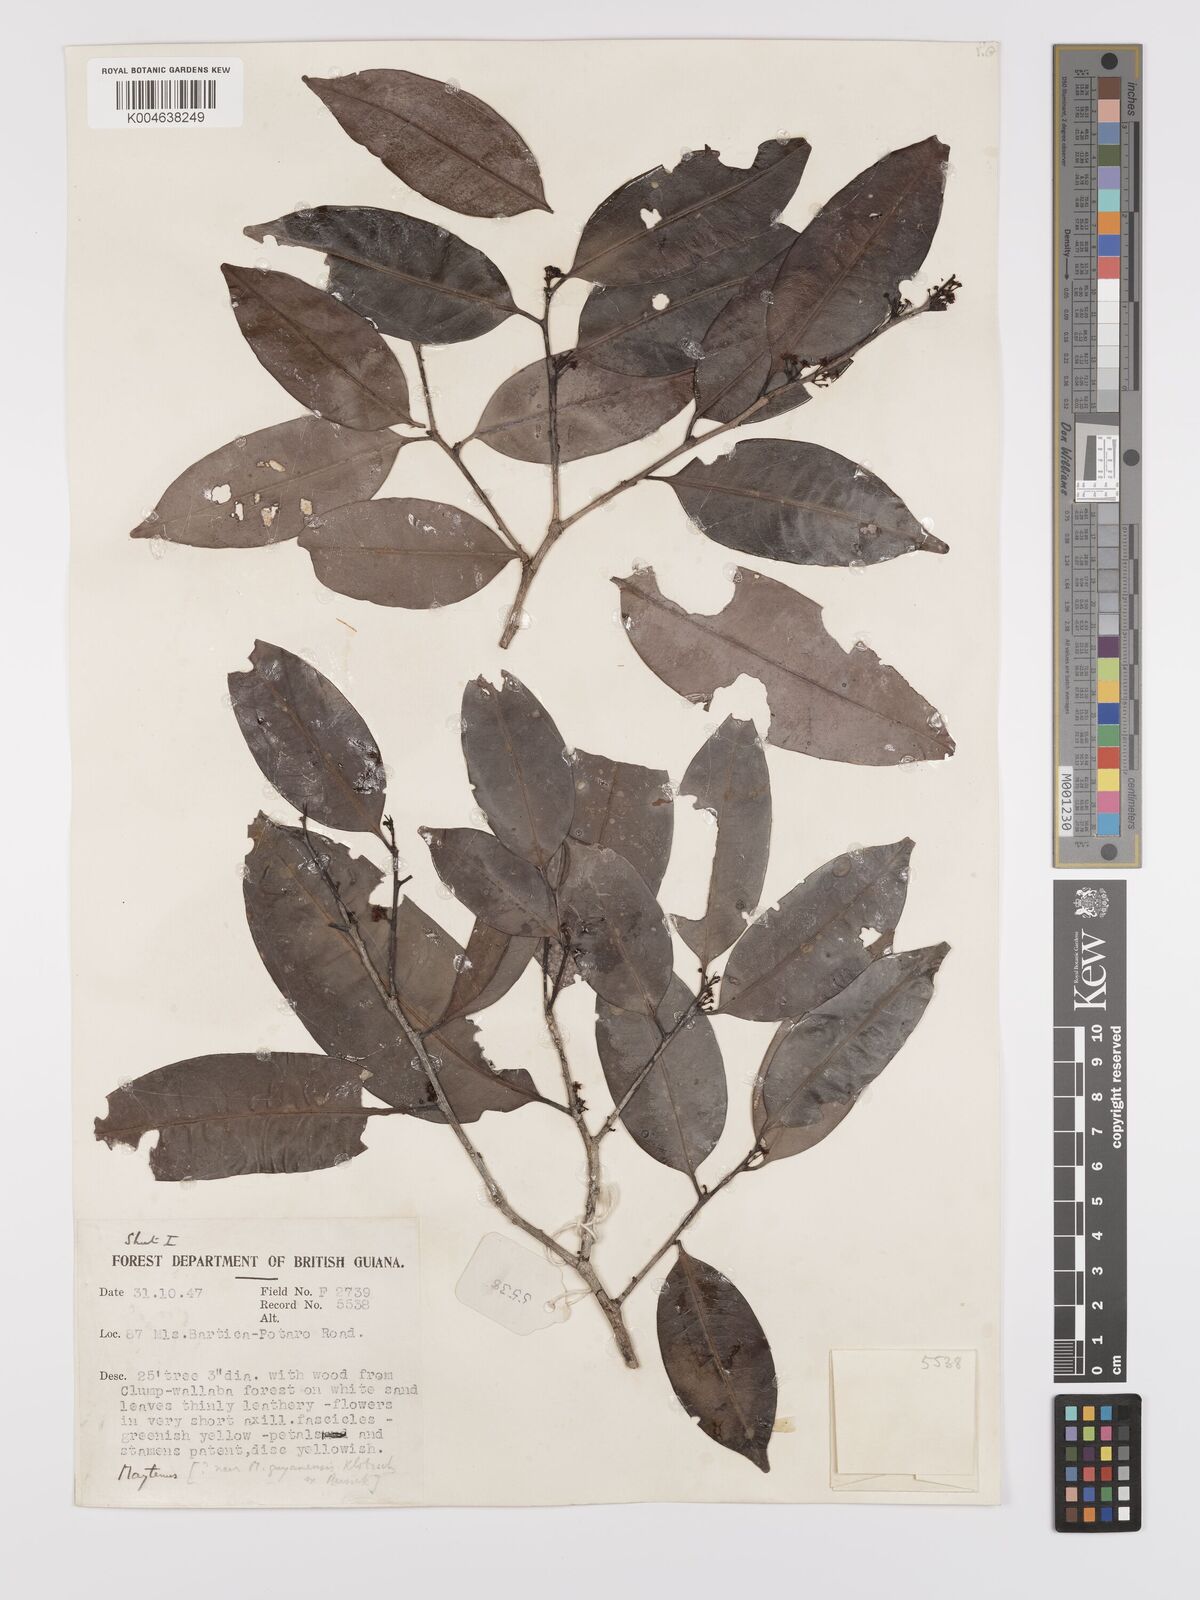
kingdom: Plantae
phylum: Tracheophyta
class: Magnoliopsida
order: Celastrales
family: Celastraceae
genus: Maytenus
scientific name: Maytenus
